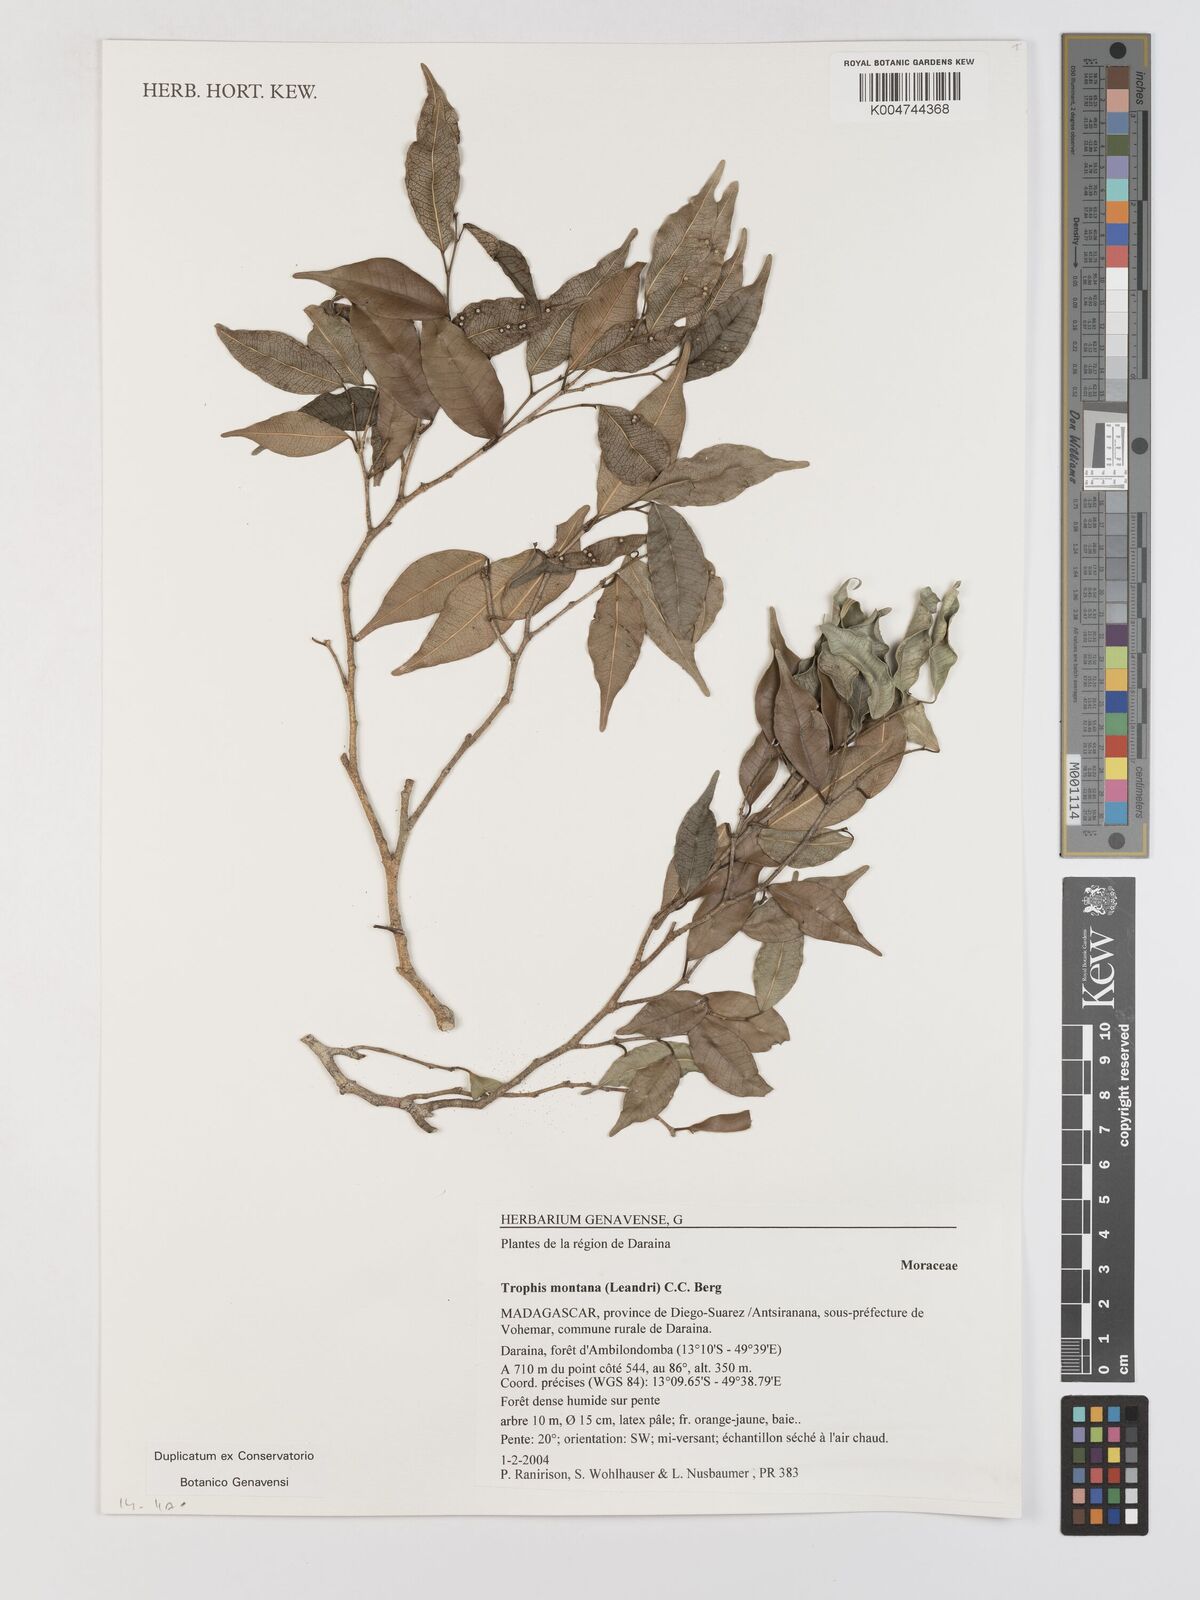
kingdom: Plantae
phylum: Tracheophyta
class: Magnoliopsida
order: Rosales
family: Moraceae
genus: Maillardia
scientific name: Maillardia montana
